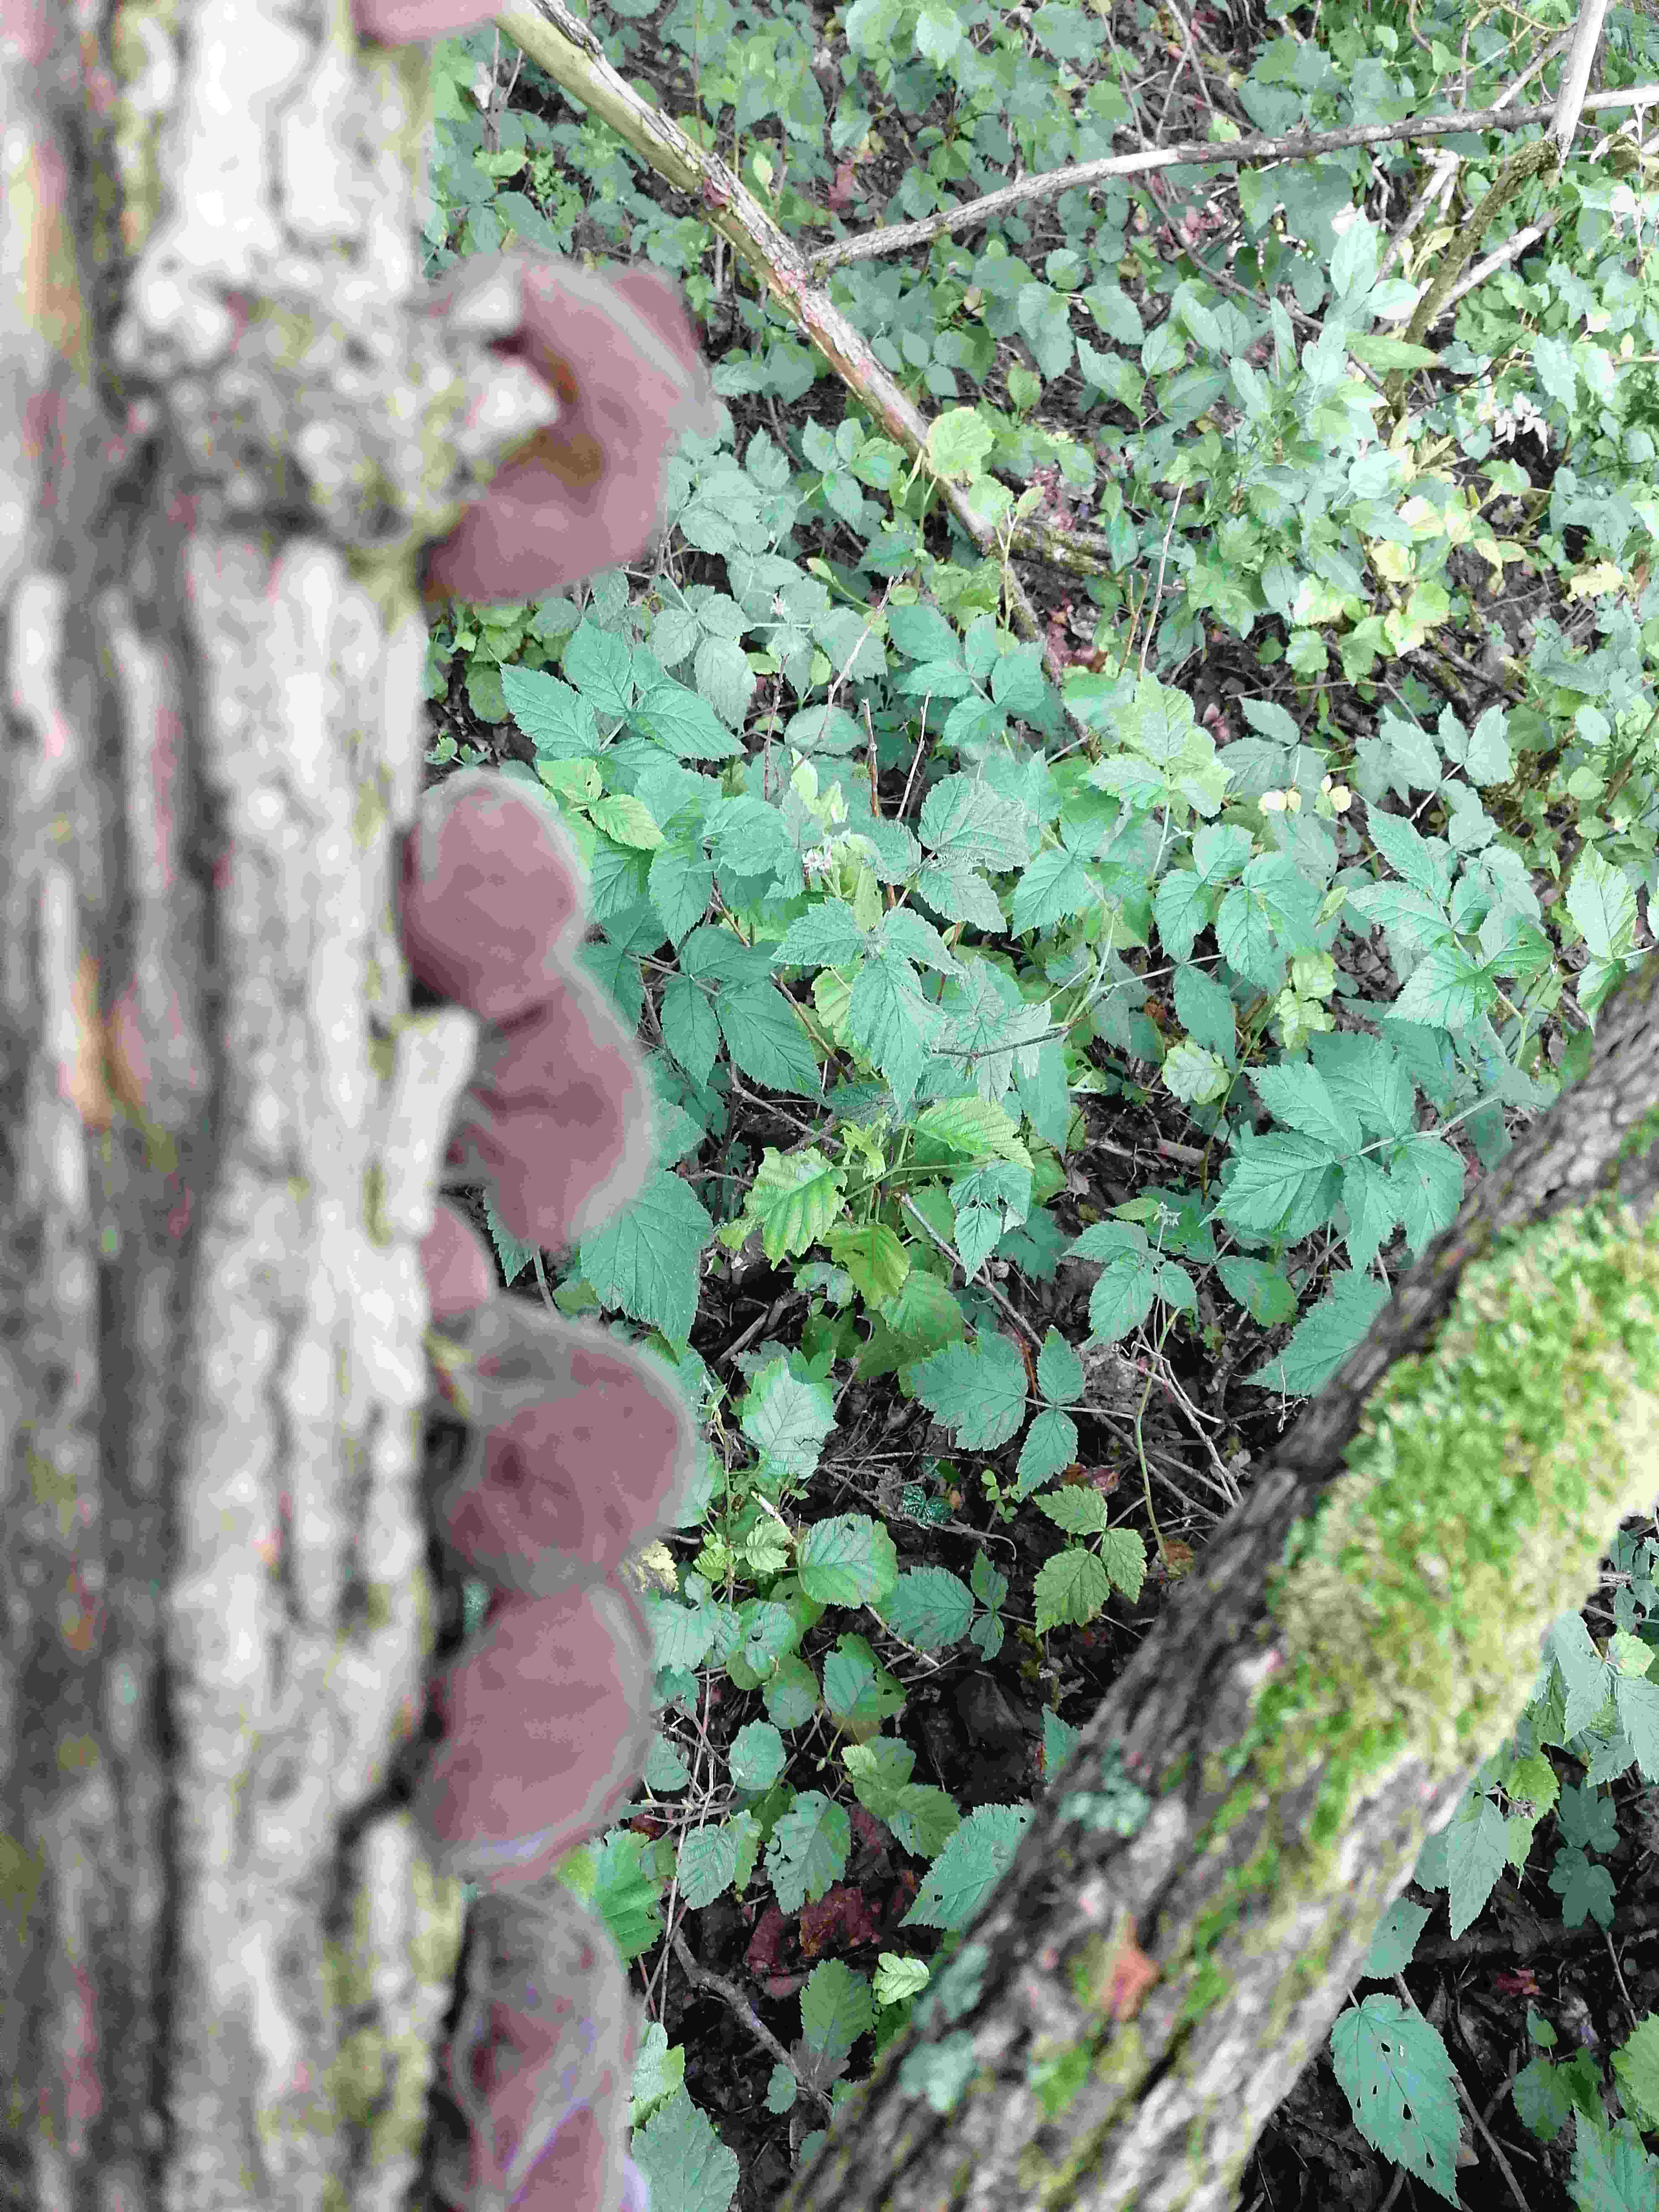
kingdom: Fungi
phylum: Basidiomycota
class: Agaricomycetes
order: Auriculariales
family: Auriculariaceae
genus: Auricularia
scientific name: Auricularia auricula-judae
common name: almindelig judasøre
